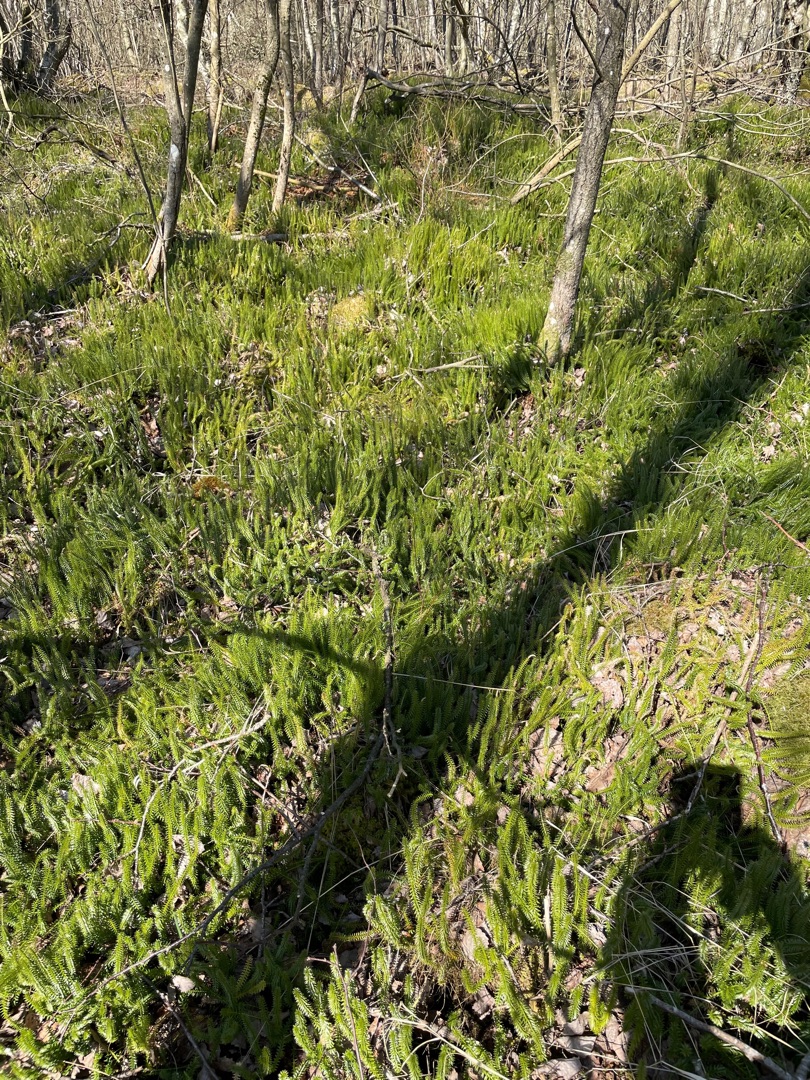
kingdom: Plantae
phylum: Tracheophyta
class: Lycopodiopsida
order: Lycopodiales
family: Lycopodiaceae
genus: Spinulum
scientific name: Spinulum annotinum
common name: Femradet ulvefod
